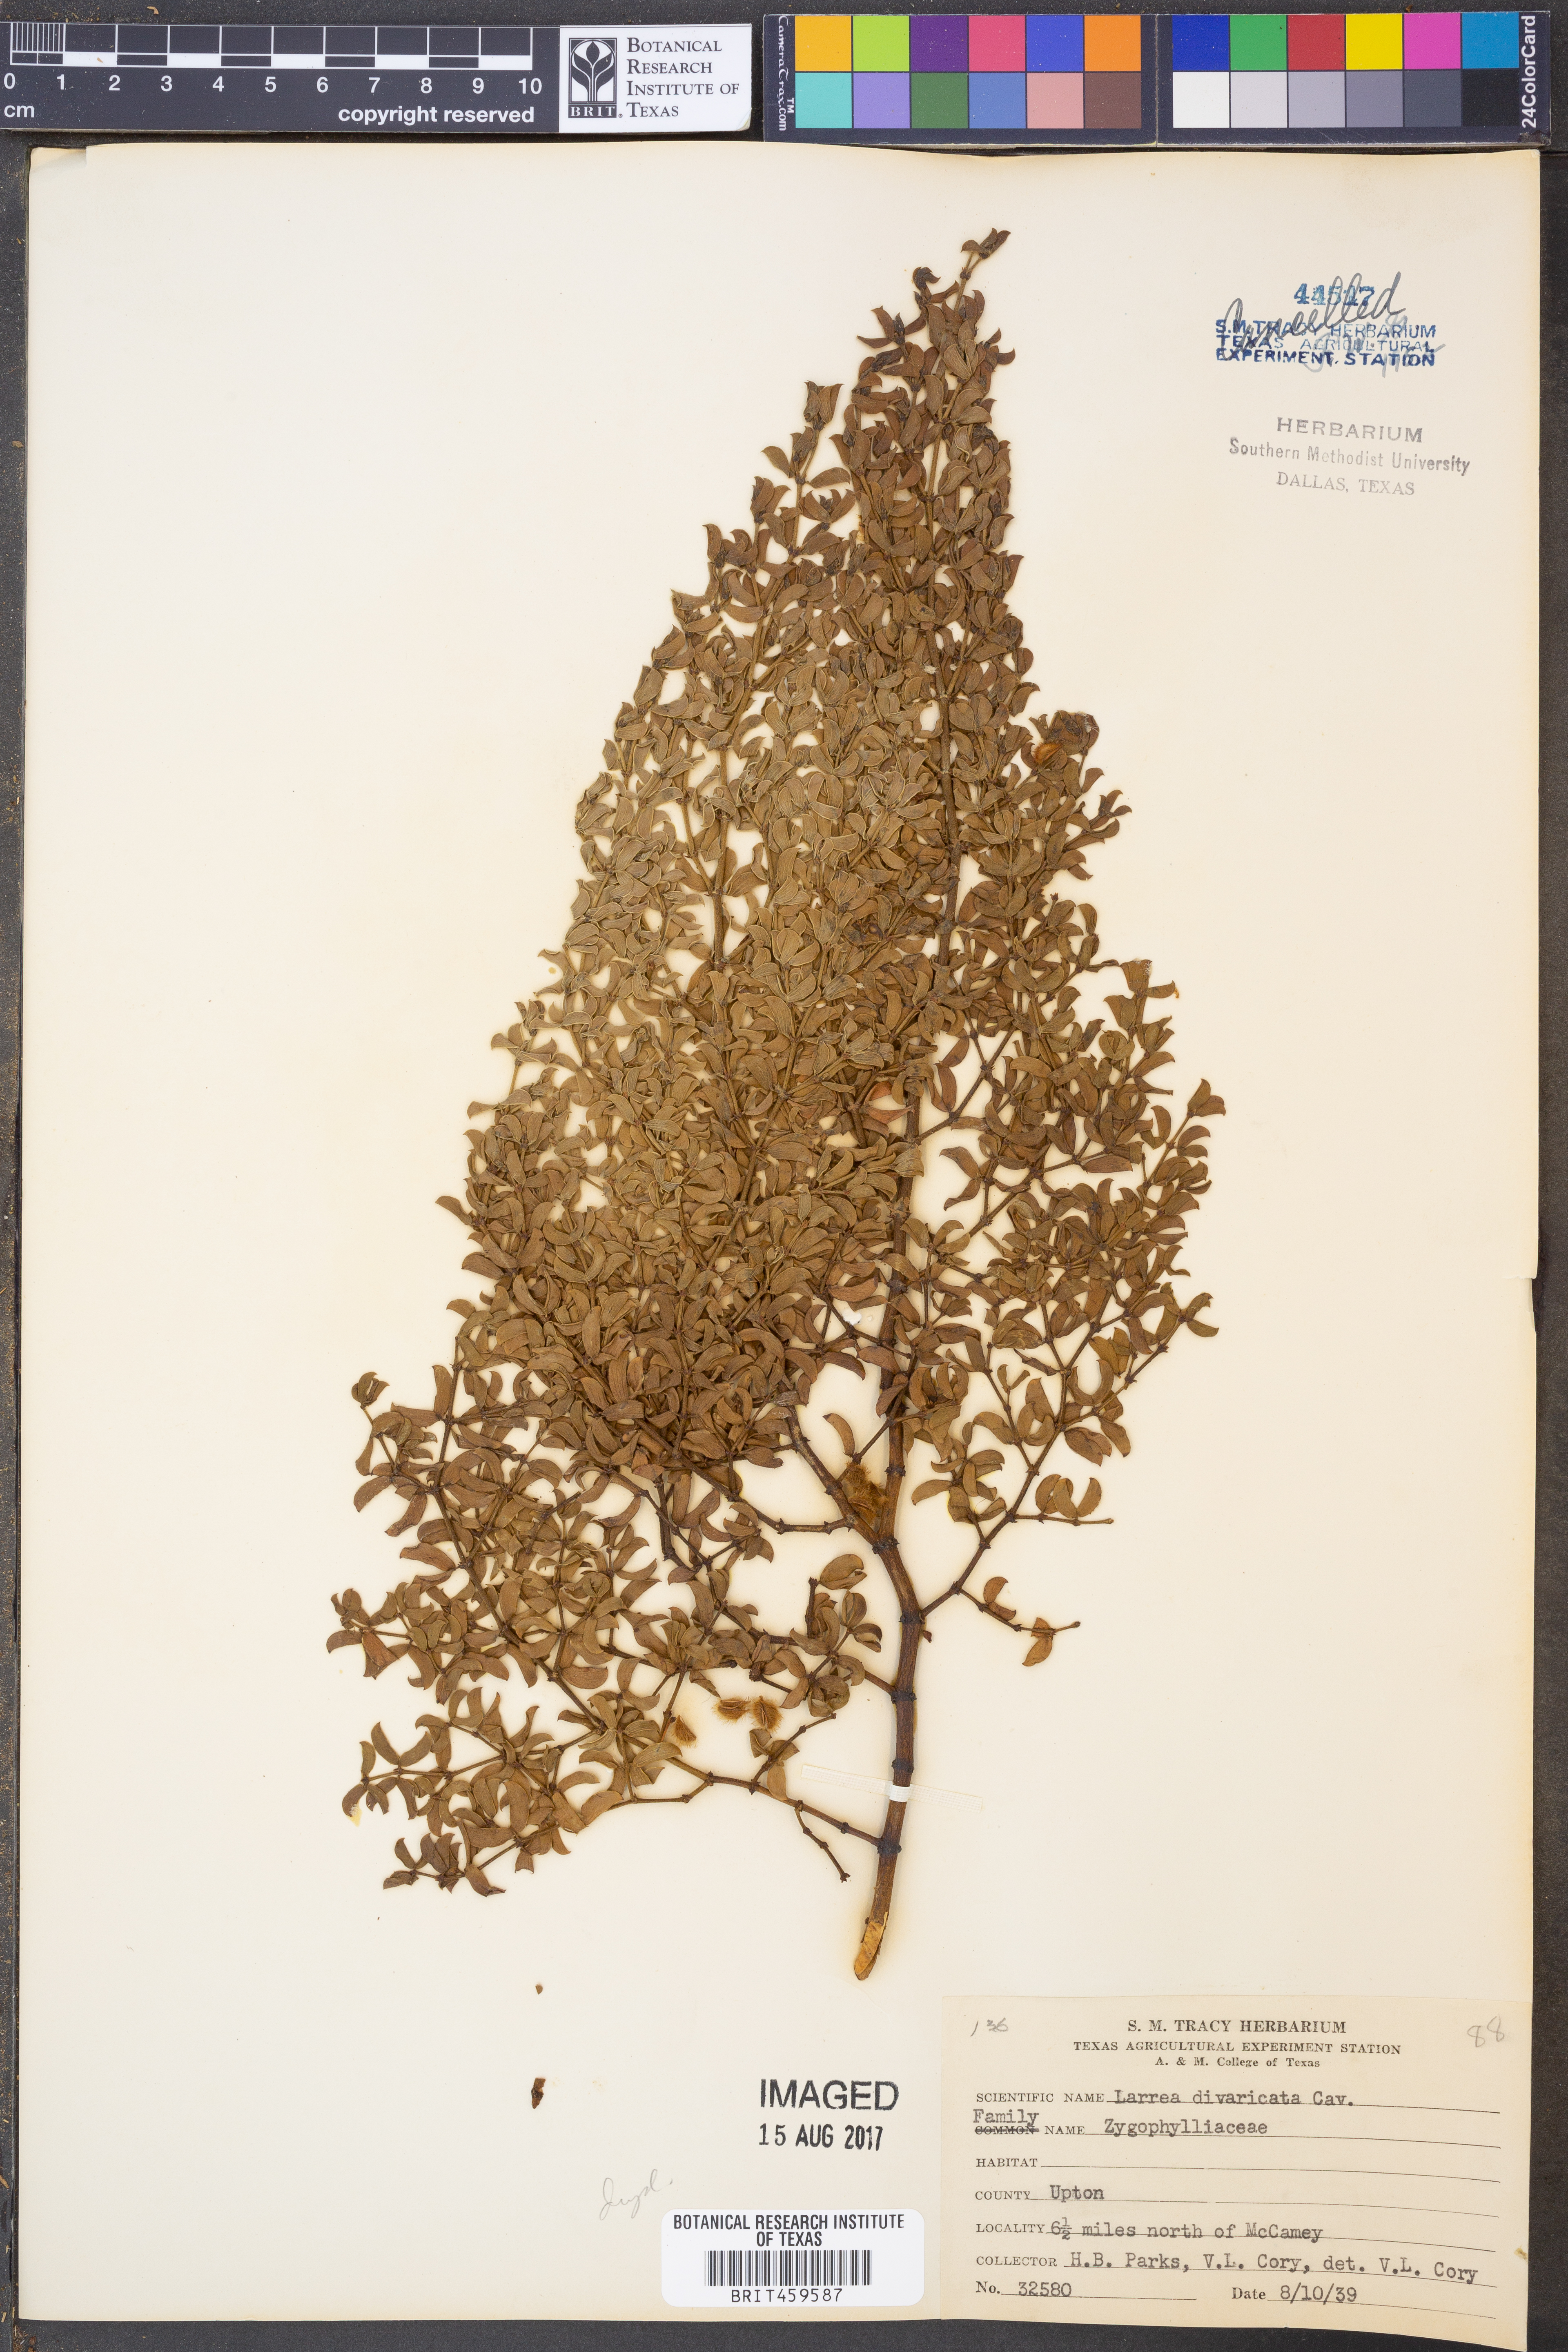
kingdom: Plantae
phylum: Tracheophyta
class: Magnoliopsida
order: Zygophyllales
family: Zygophyllaceae
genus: Larrea
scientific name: Larrea divaricata
